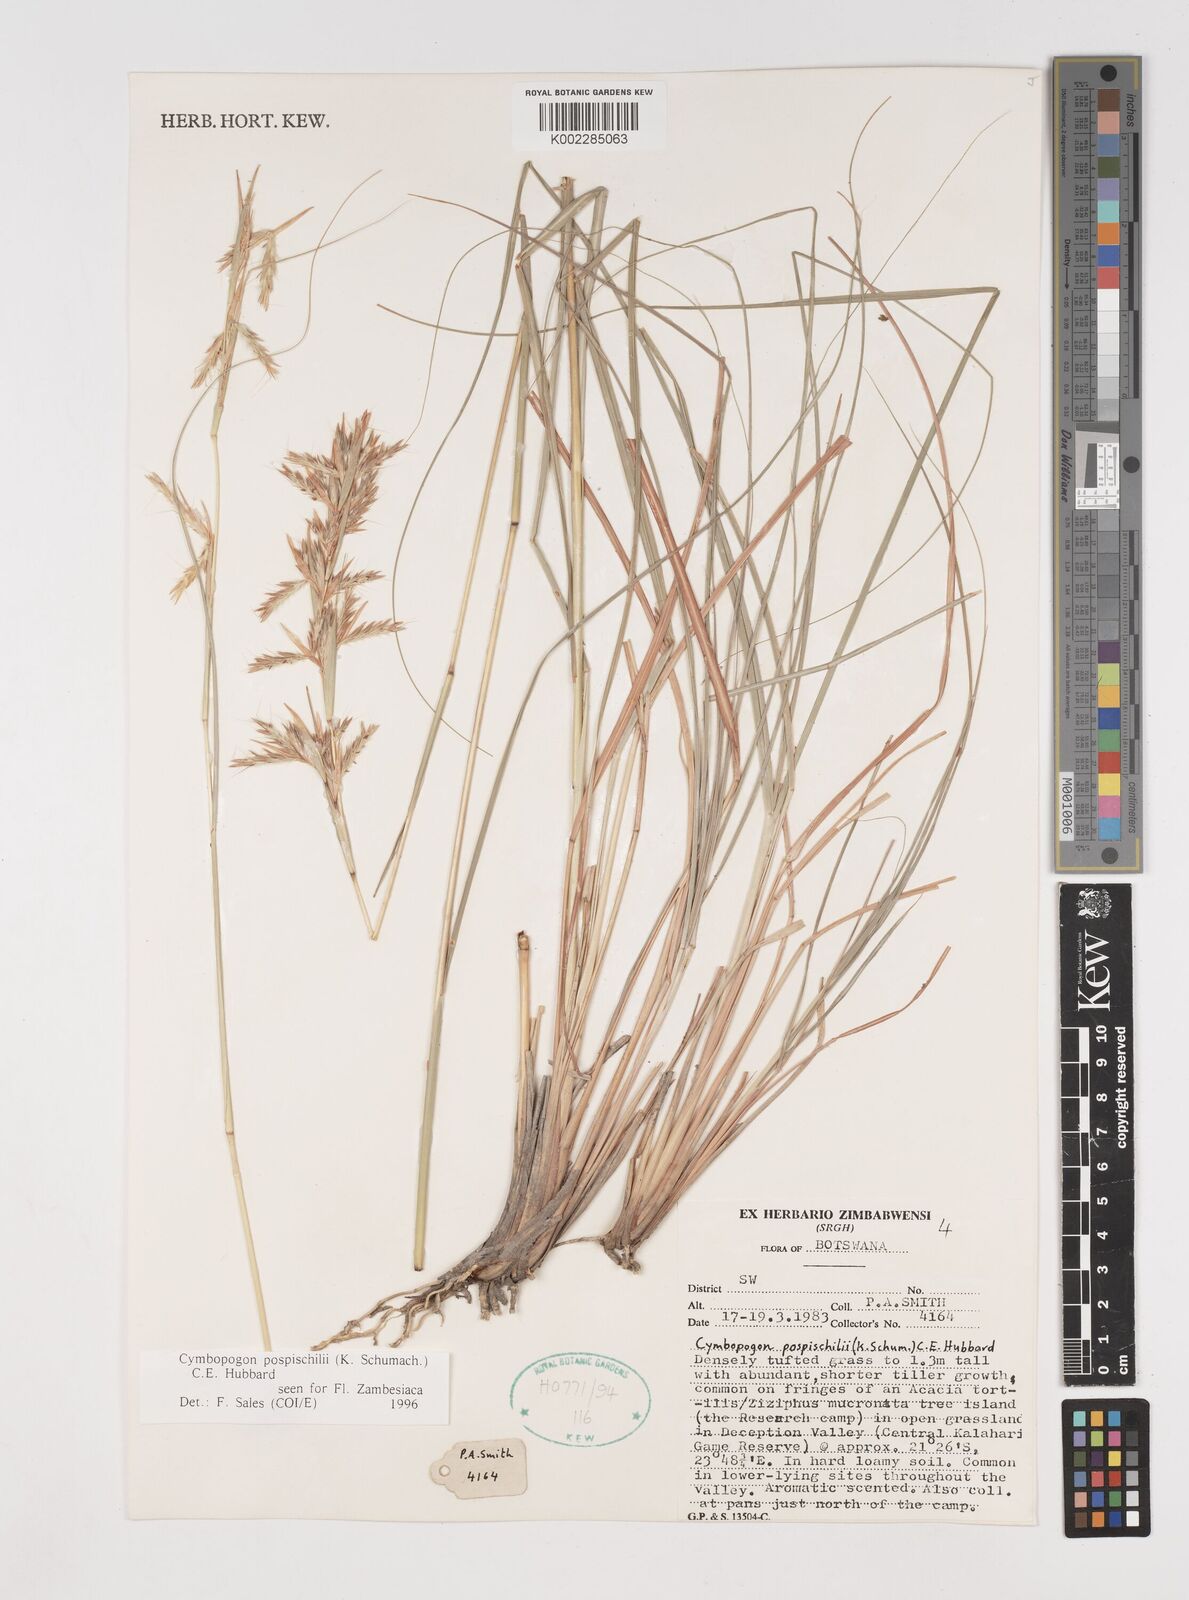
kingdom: Plantae
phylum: Tracheophyta
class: Liliopsida
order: Poales
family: Poaceae
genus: Cymbopogon
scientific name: Cymbopogon pospischilii
